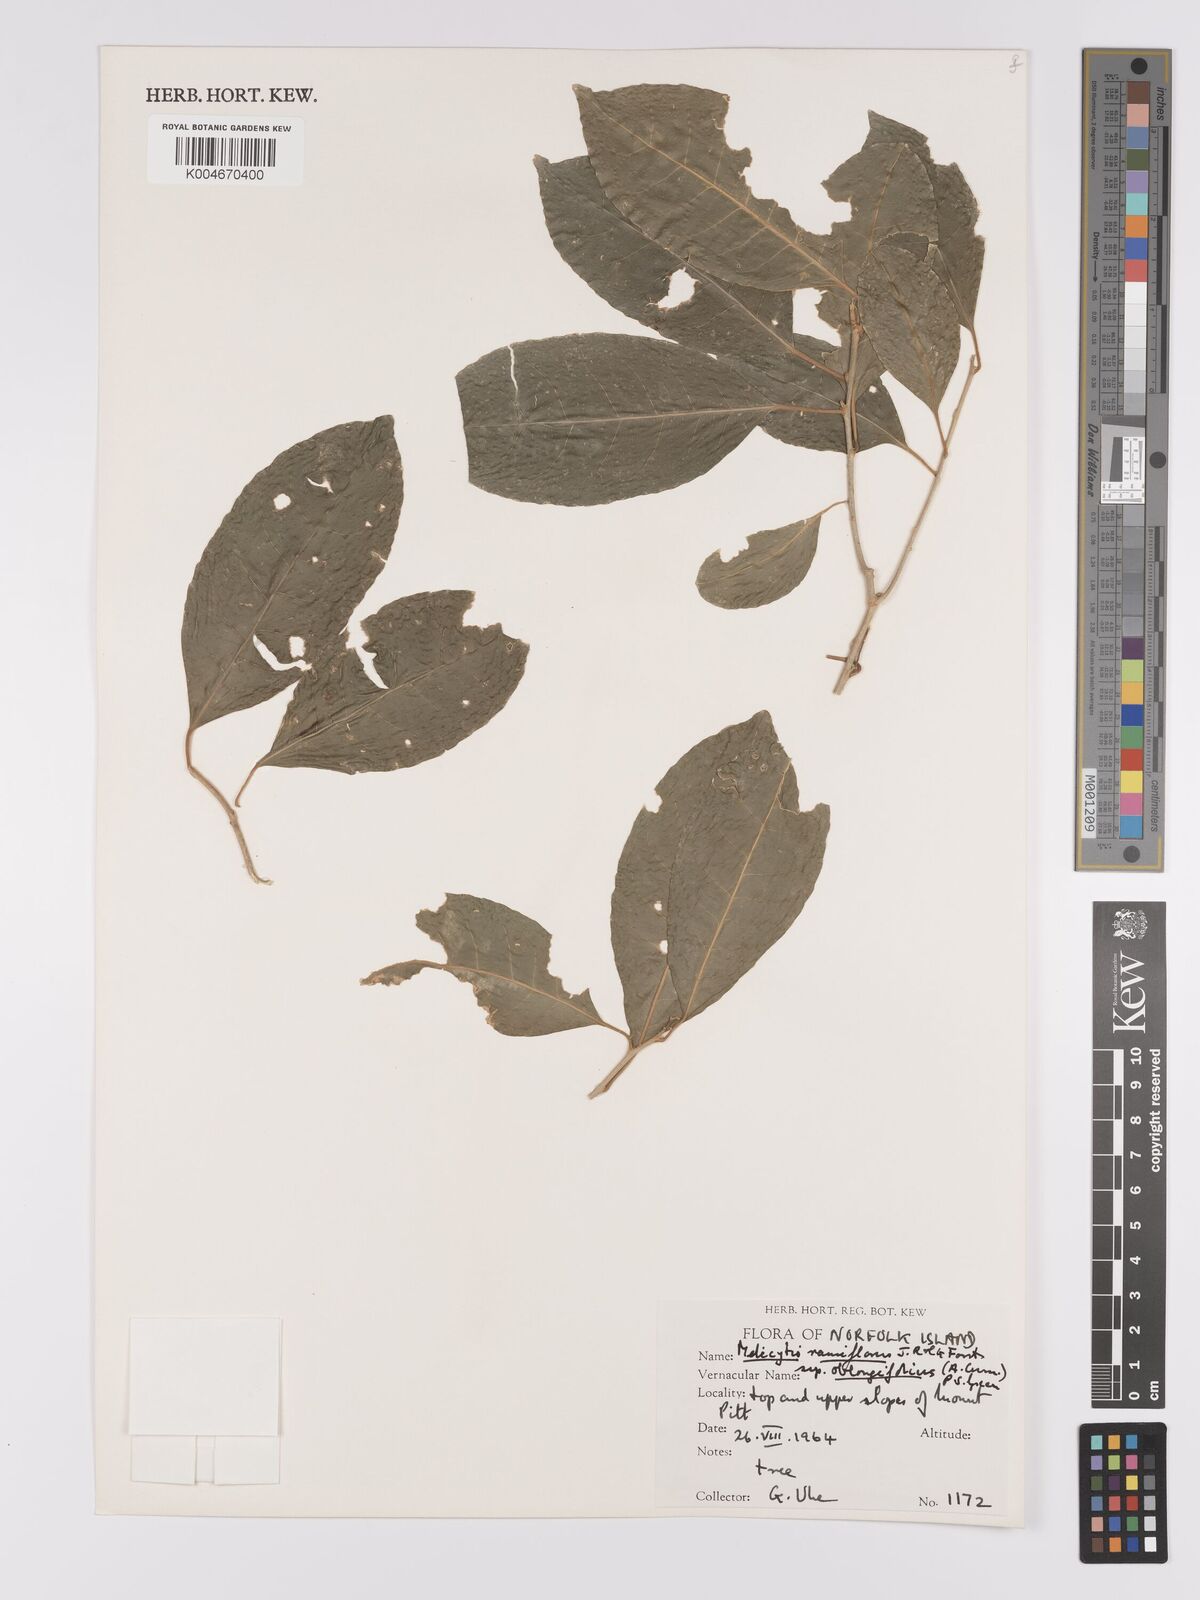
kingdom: Plantae
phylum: Tracheophyta
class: Magnoliopsida
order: Malpighiales
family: Violaceae
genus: Melicytus
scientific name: Melicytus ramiflorus
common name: Mahoe
